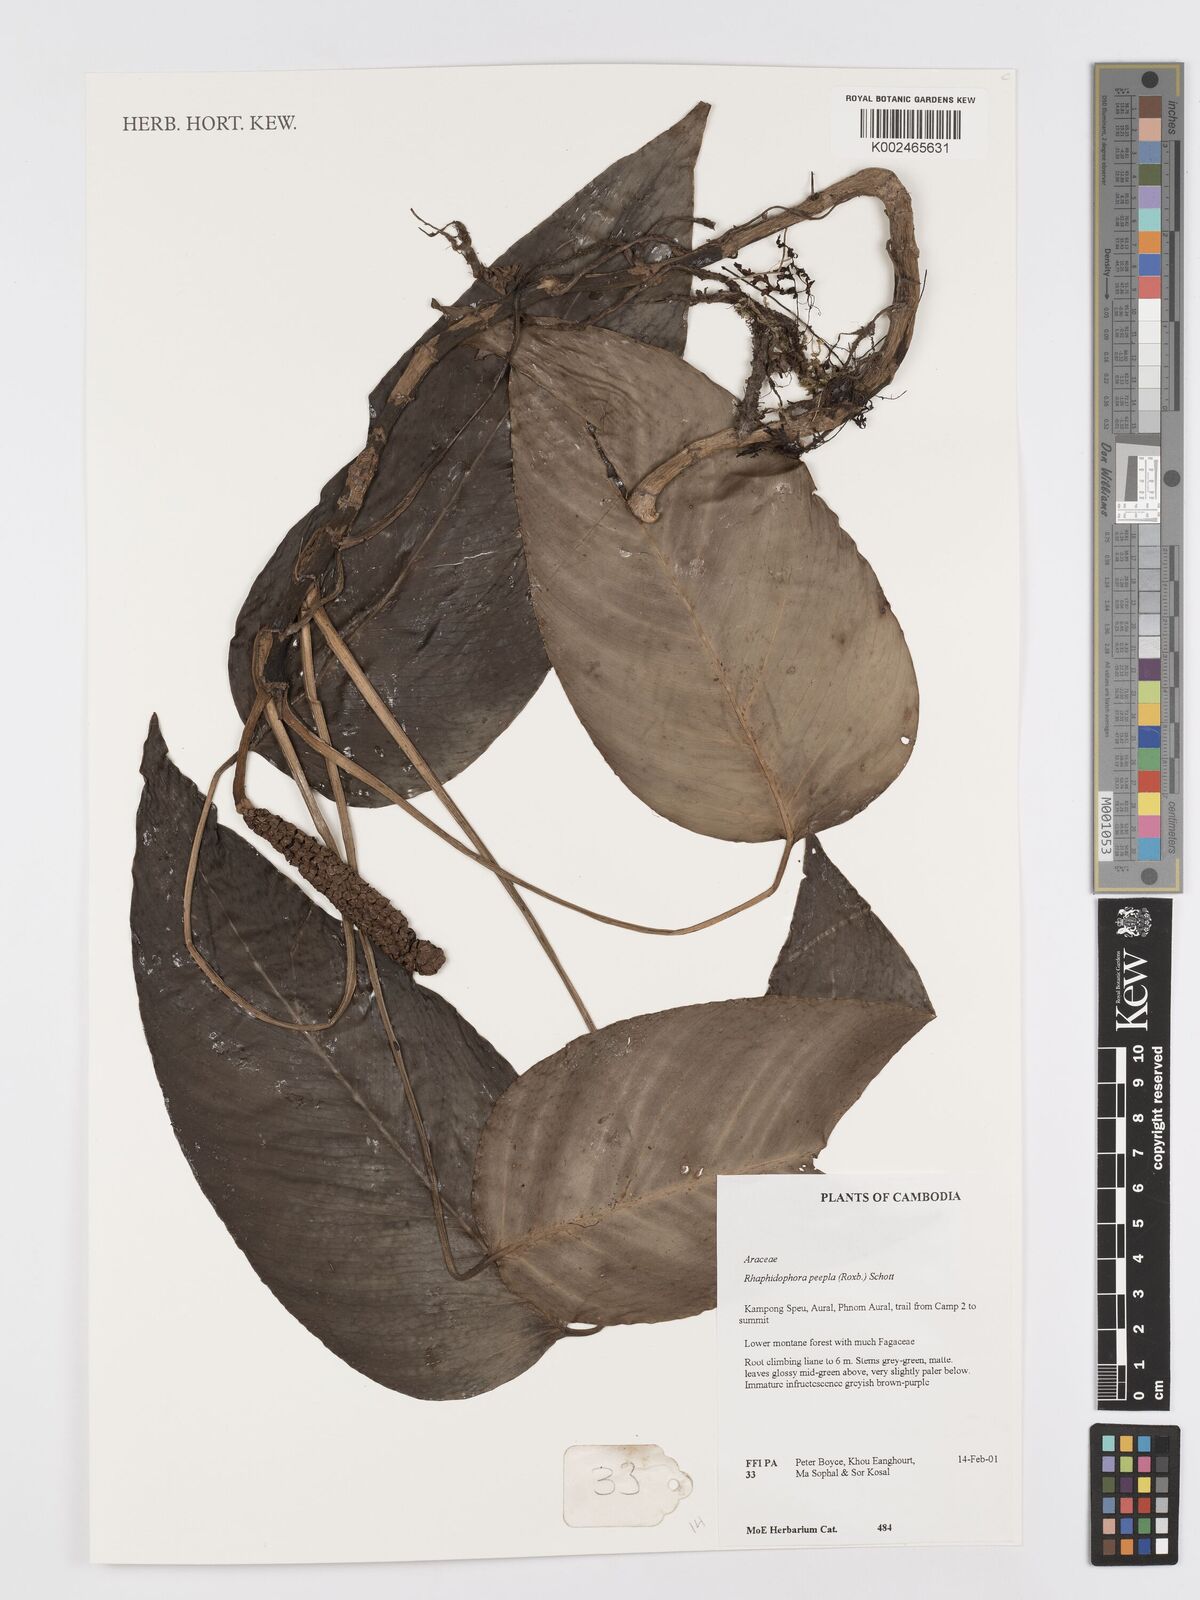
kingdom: Plantae
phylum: Tracheophyta
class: Liliopsida
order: Alismatales
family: Araceae
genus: Rhaphidophora
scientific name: Rhaphidophora peepla
